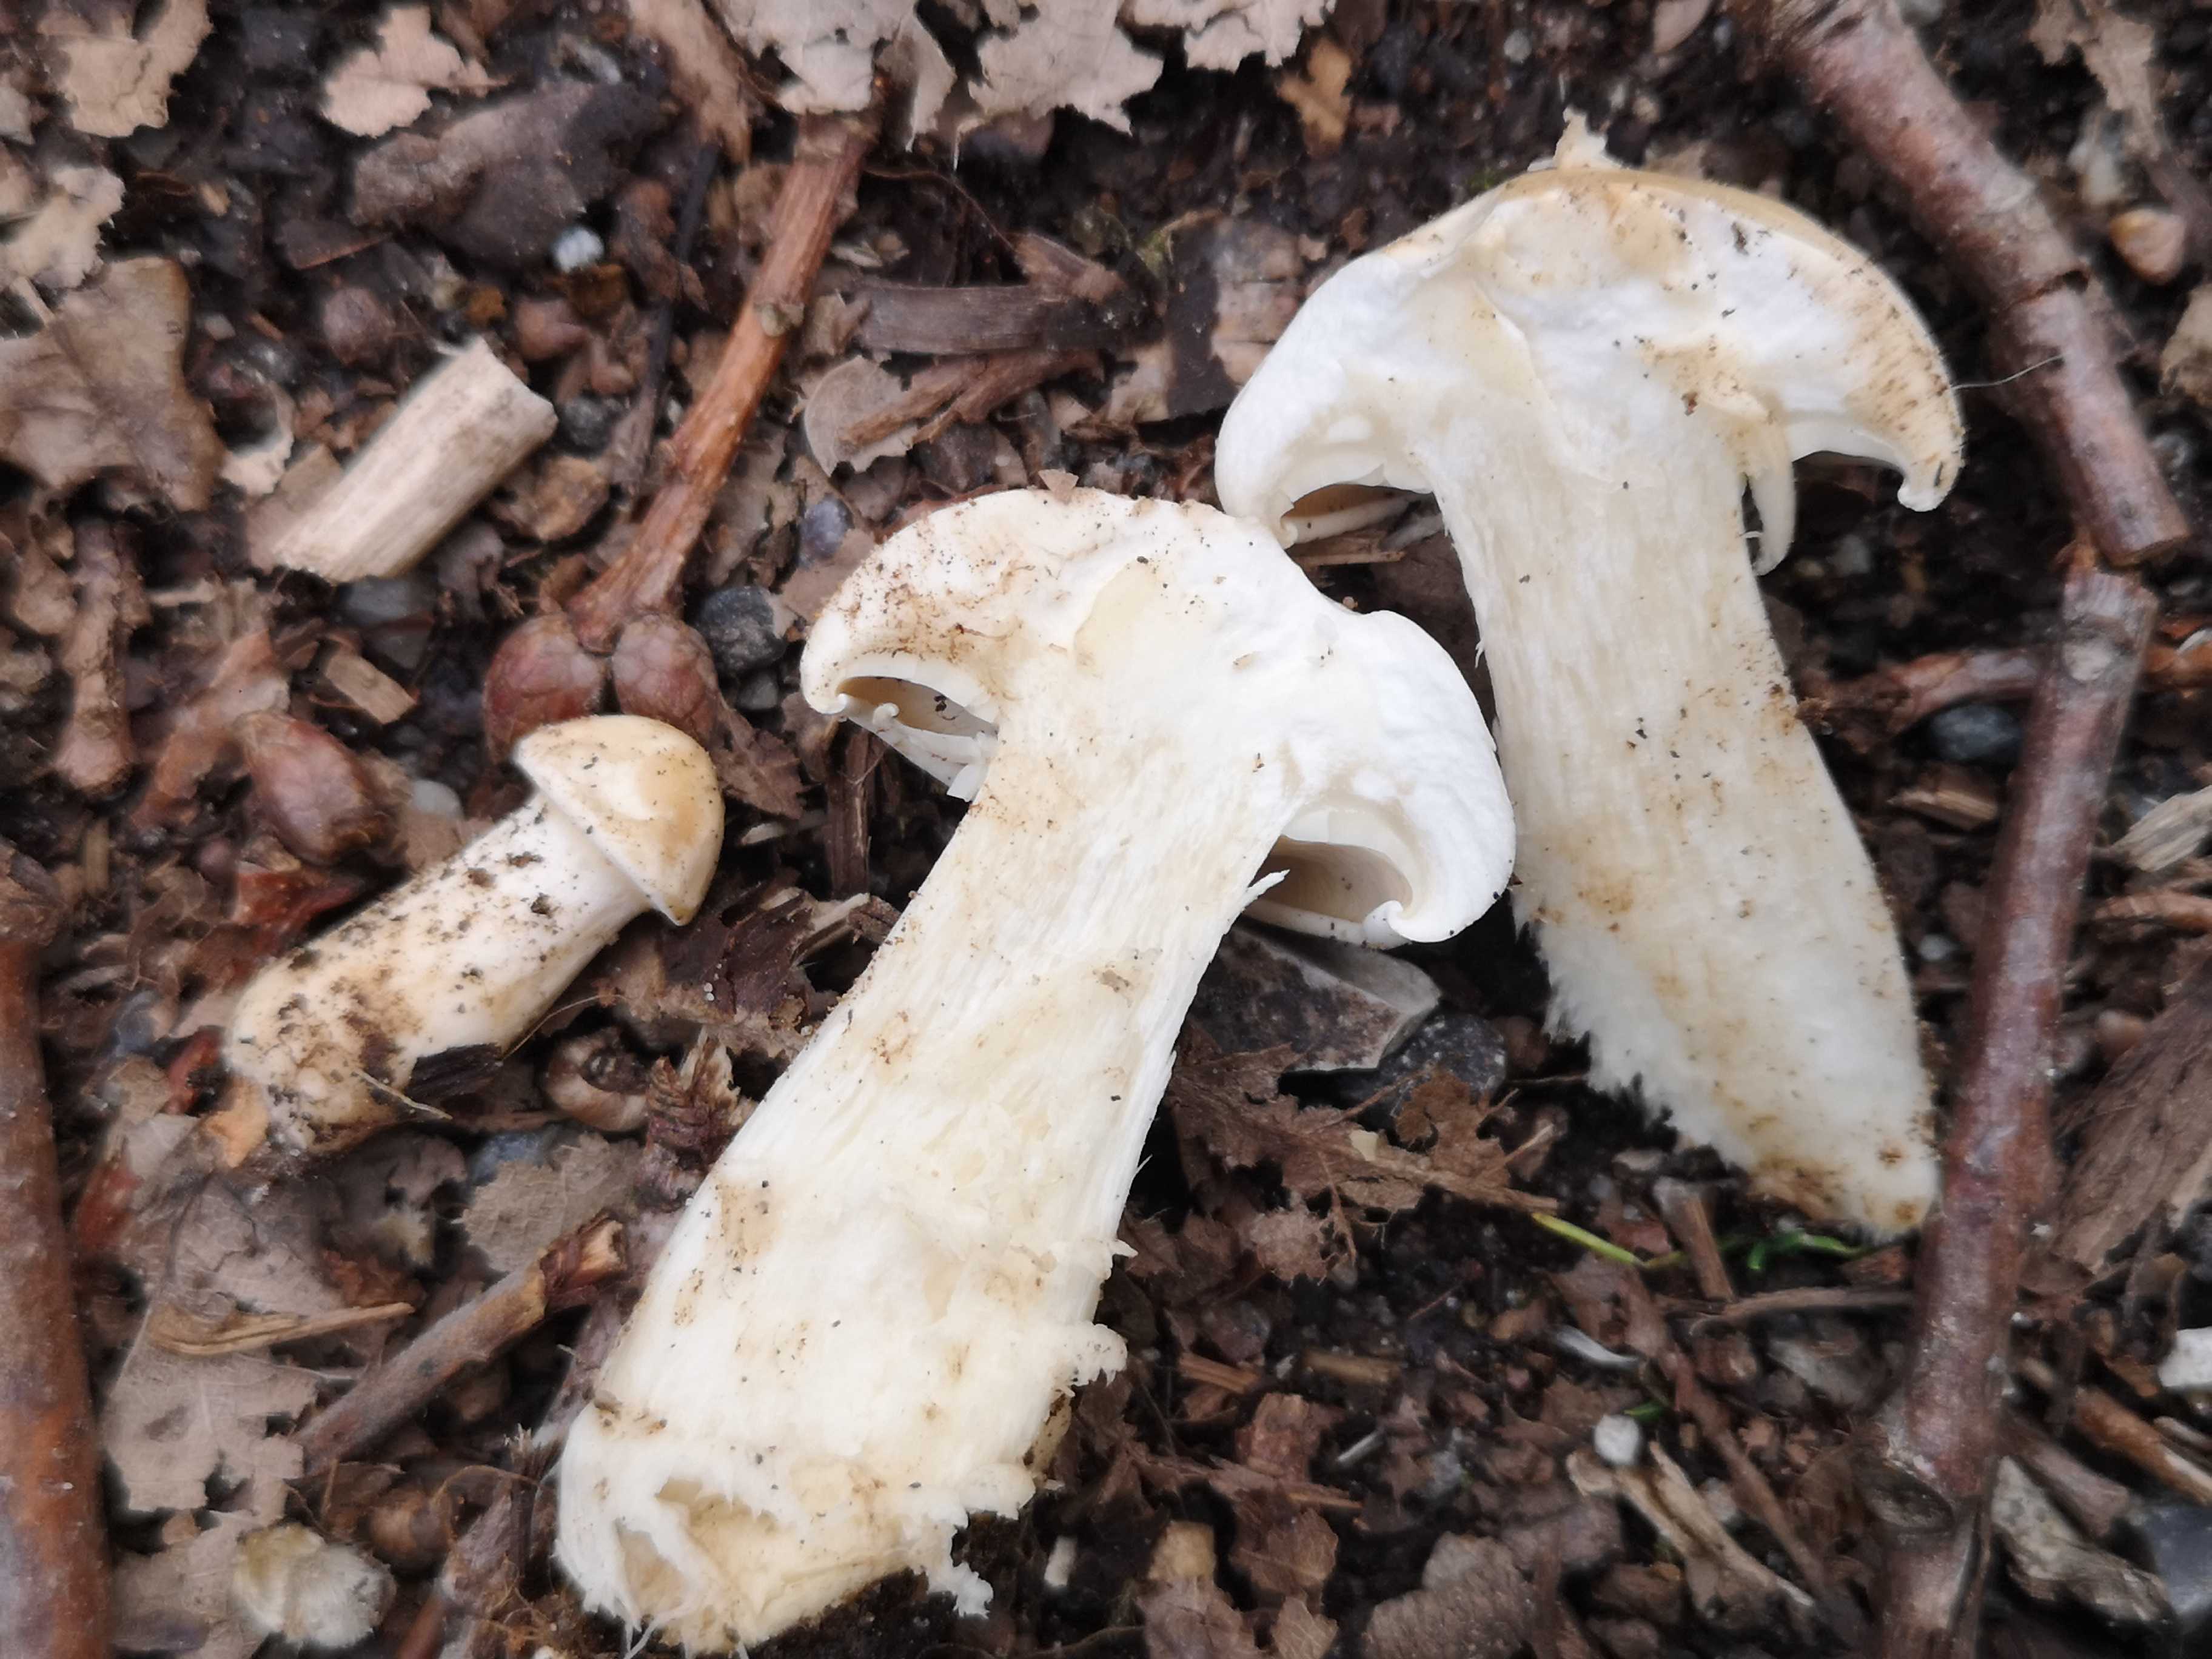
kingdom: Fungi
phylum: Basidiomycota
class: Agaricomycetes
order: Agaricales
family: Lyophyllaceae
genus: Calocybe
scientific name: Calocybe gambosa
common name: vårmusseron
